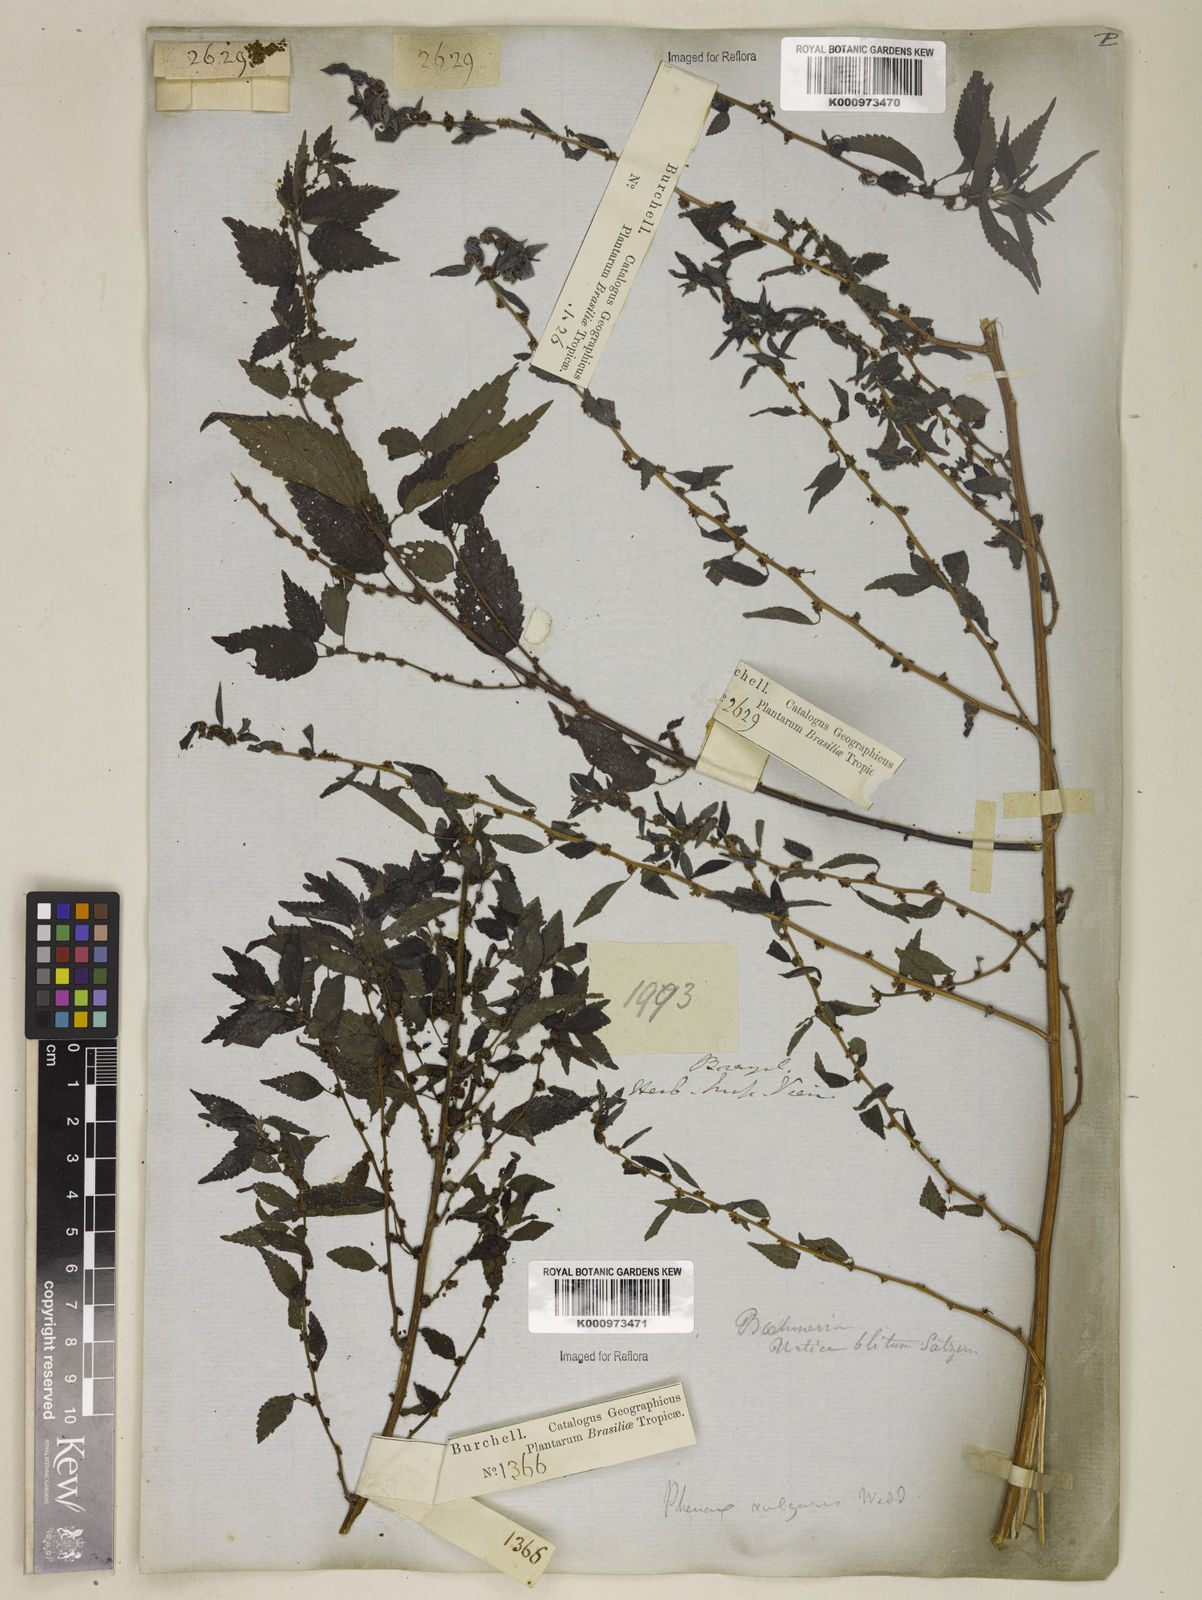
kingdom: Plantae
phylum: Tracheophyta
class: Magnoliopsida
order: Rosales
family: Urticaceae
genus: Phenax
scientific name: Phenax sonneratii
